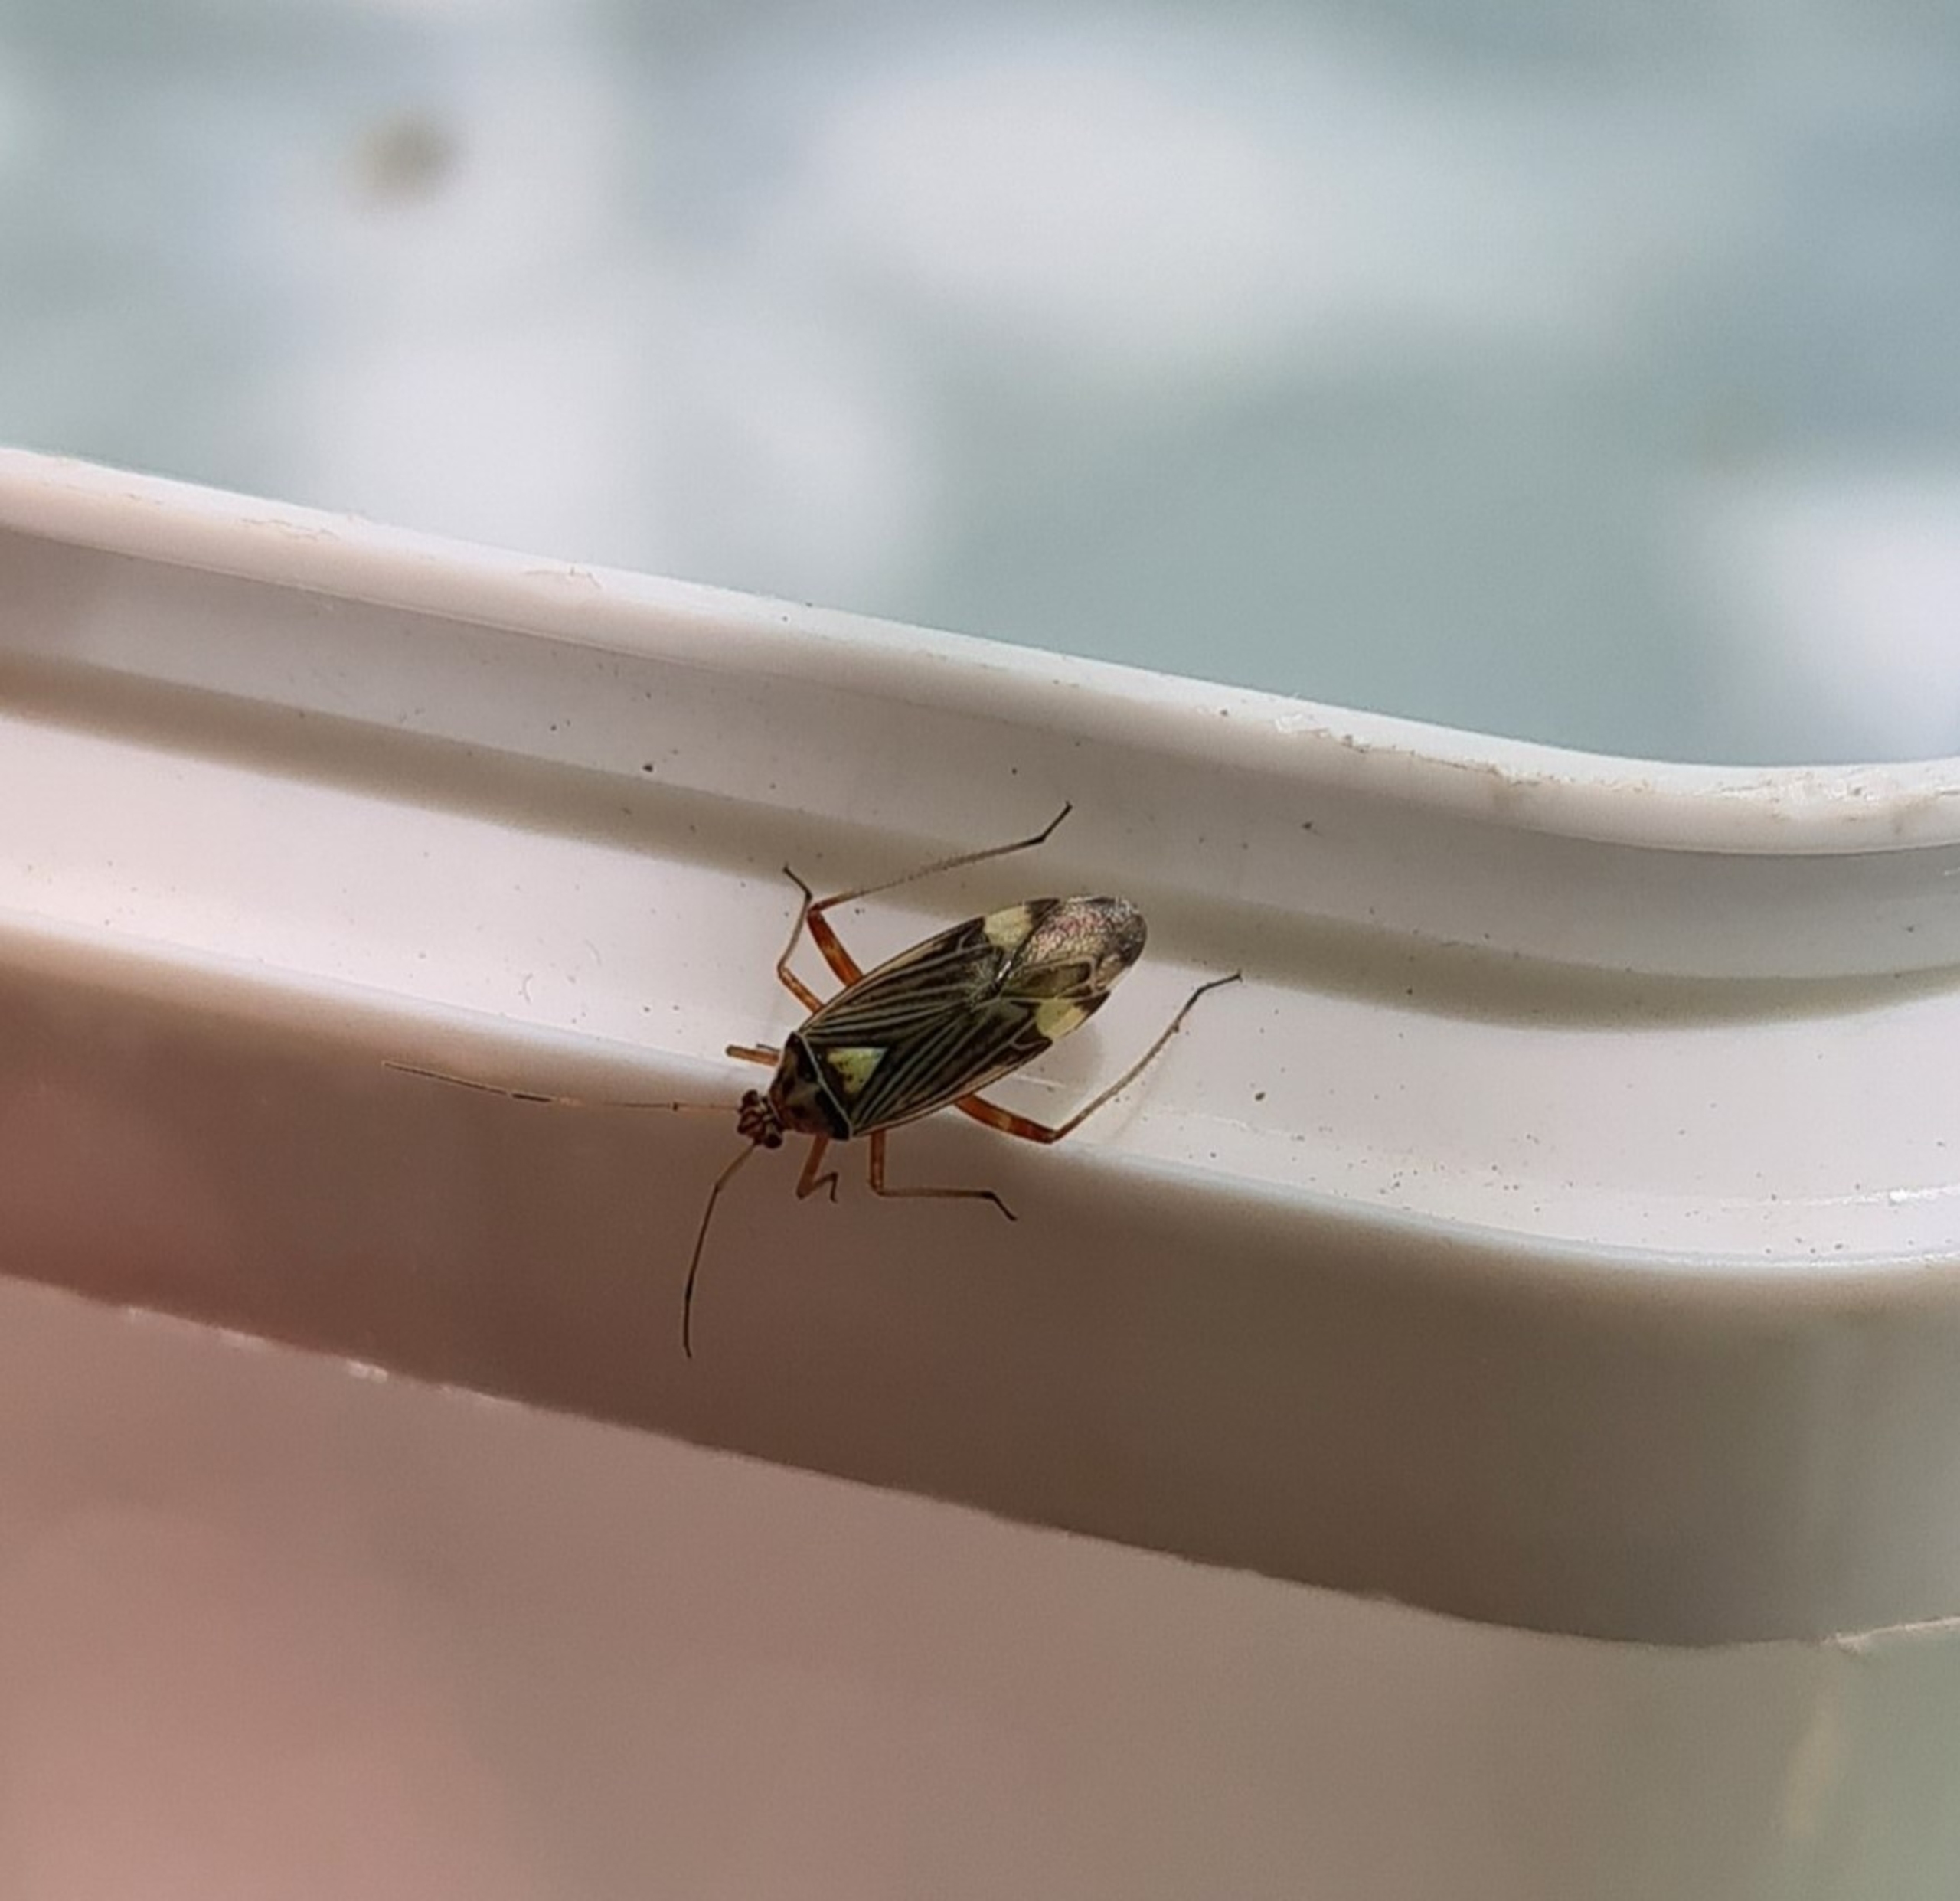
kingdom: Animalia
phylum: Arthropoda
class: Insecta
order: Hemiptera
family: Miridae
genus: Rhabdomiris
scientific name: Rhabdomiris striatellus
